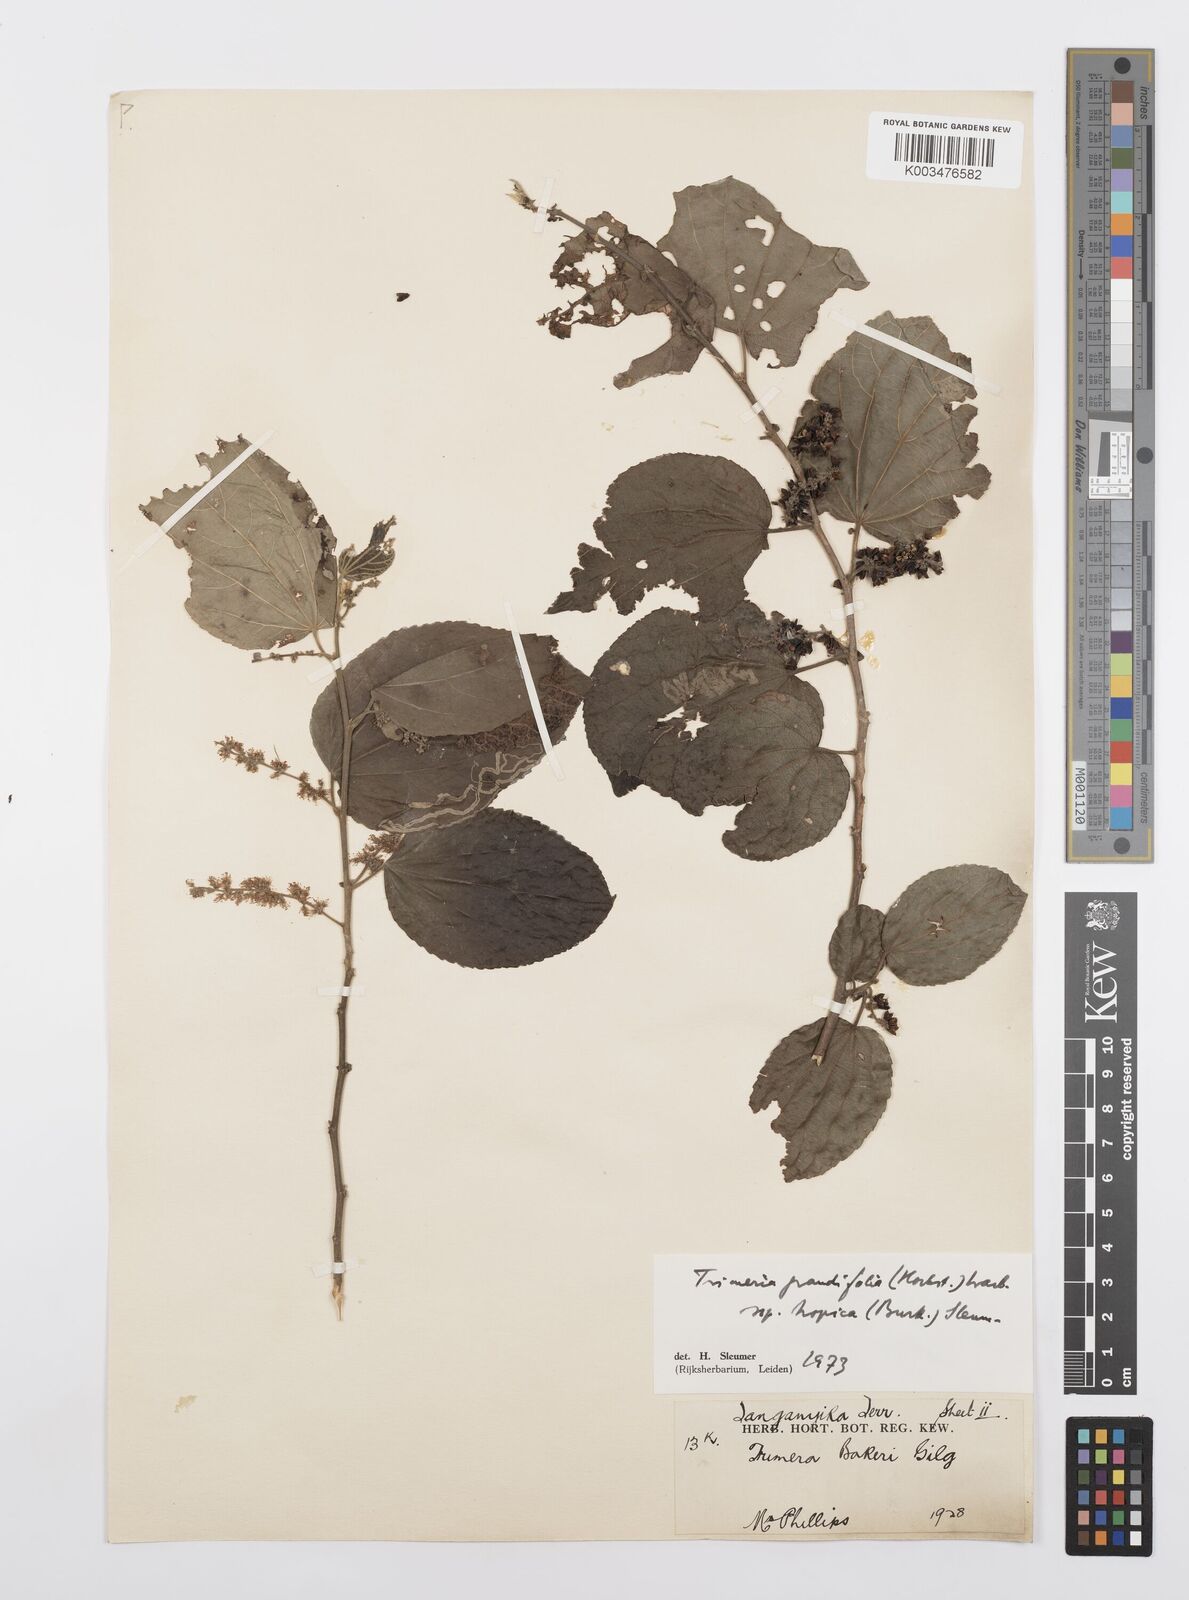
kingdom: Plantae
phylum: Tracheophyta
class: Magnoliopsida
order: Malpighiales
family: Salicaceae
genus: Trimeria
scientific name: Trimeria grandifolia
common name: Wild mulberry
